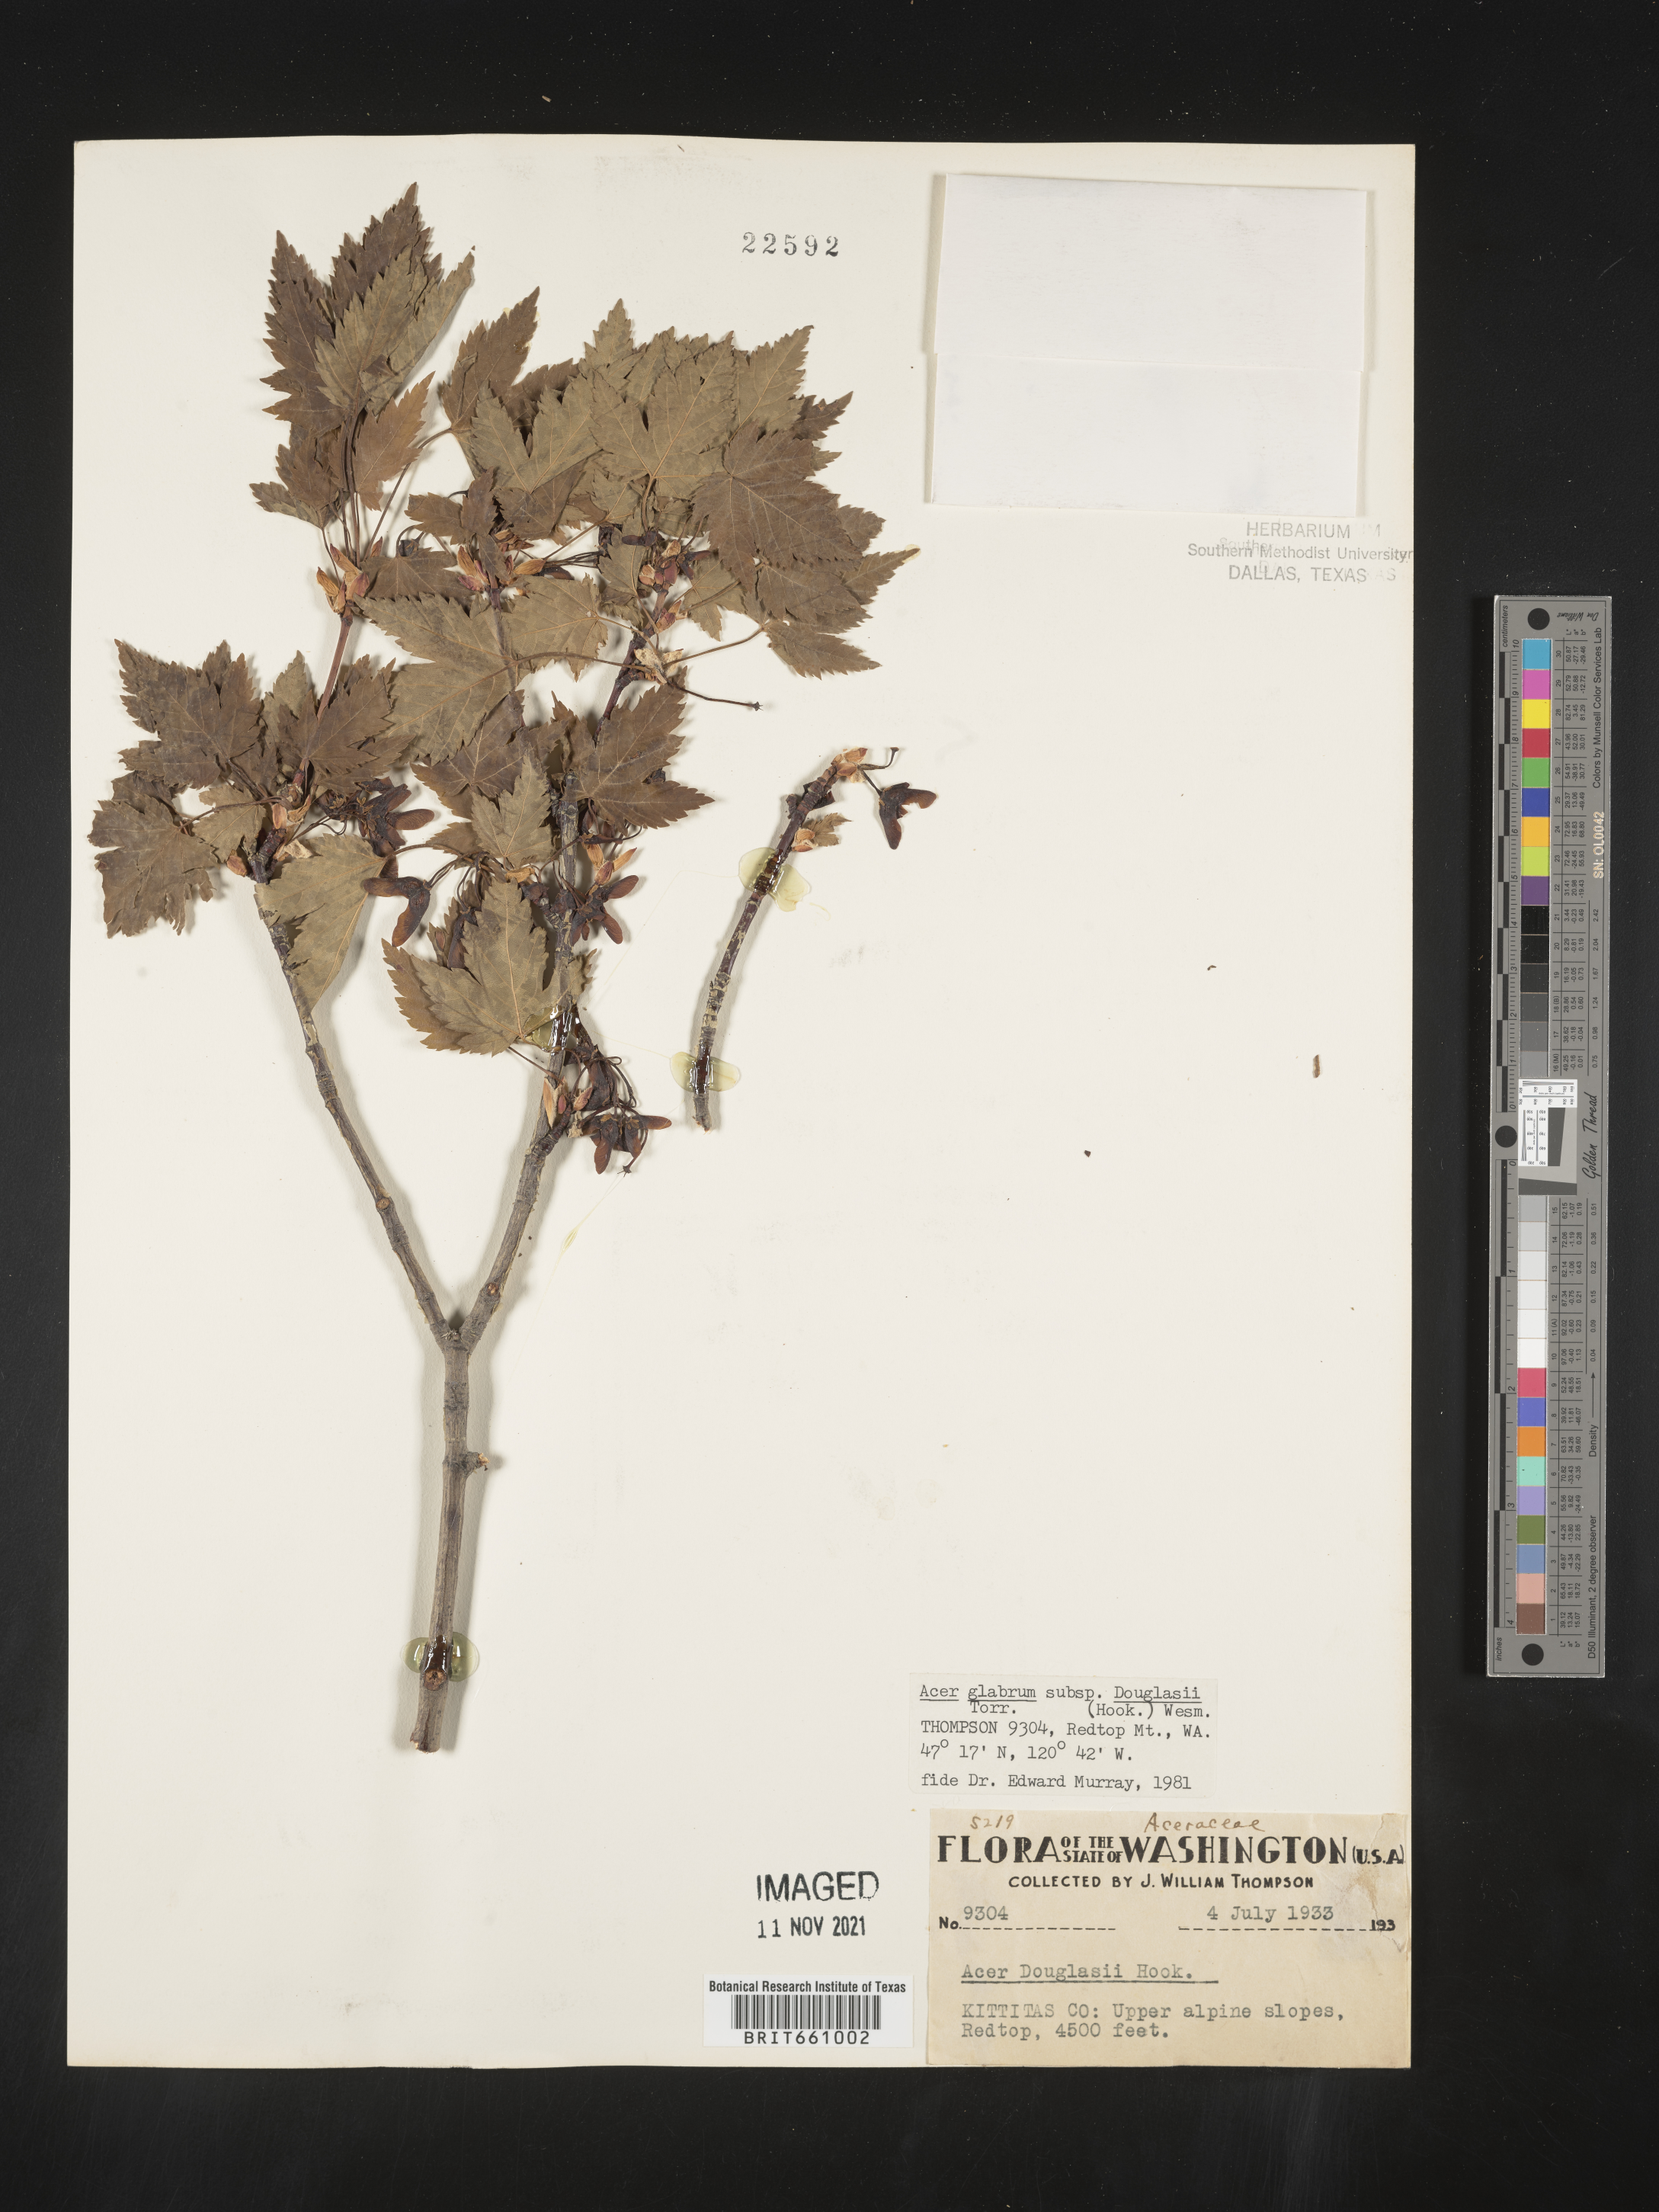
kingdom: Plantae
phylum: Tracheophyta
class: Magnoliopsida
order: Sapindales
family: Sapindaceae
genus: Acer
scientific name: Acer glabrum
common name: Rocky mountain maple
